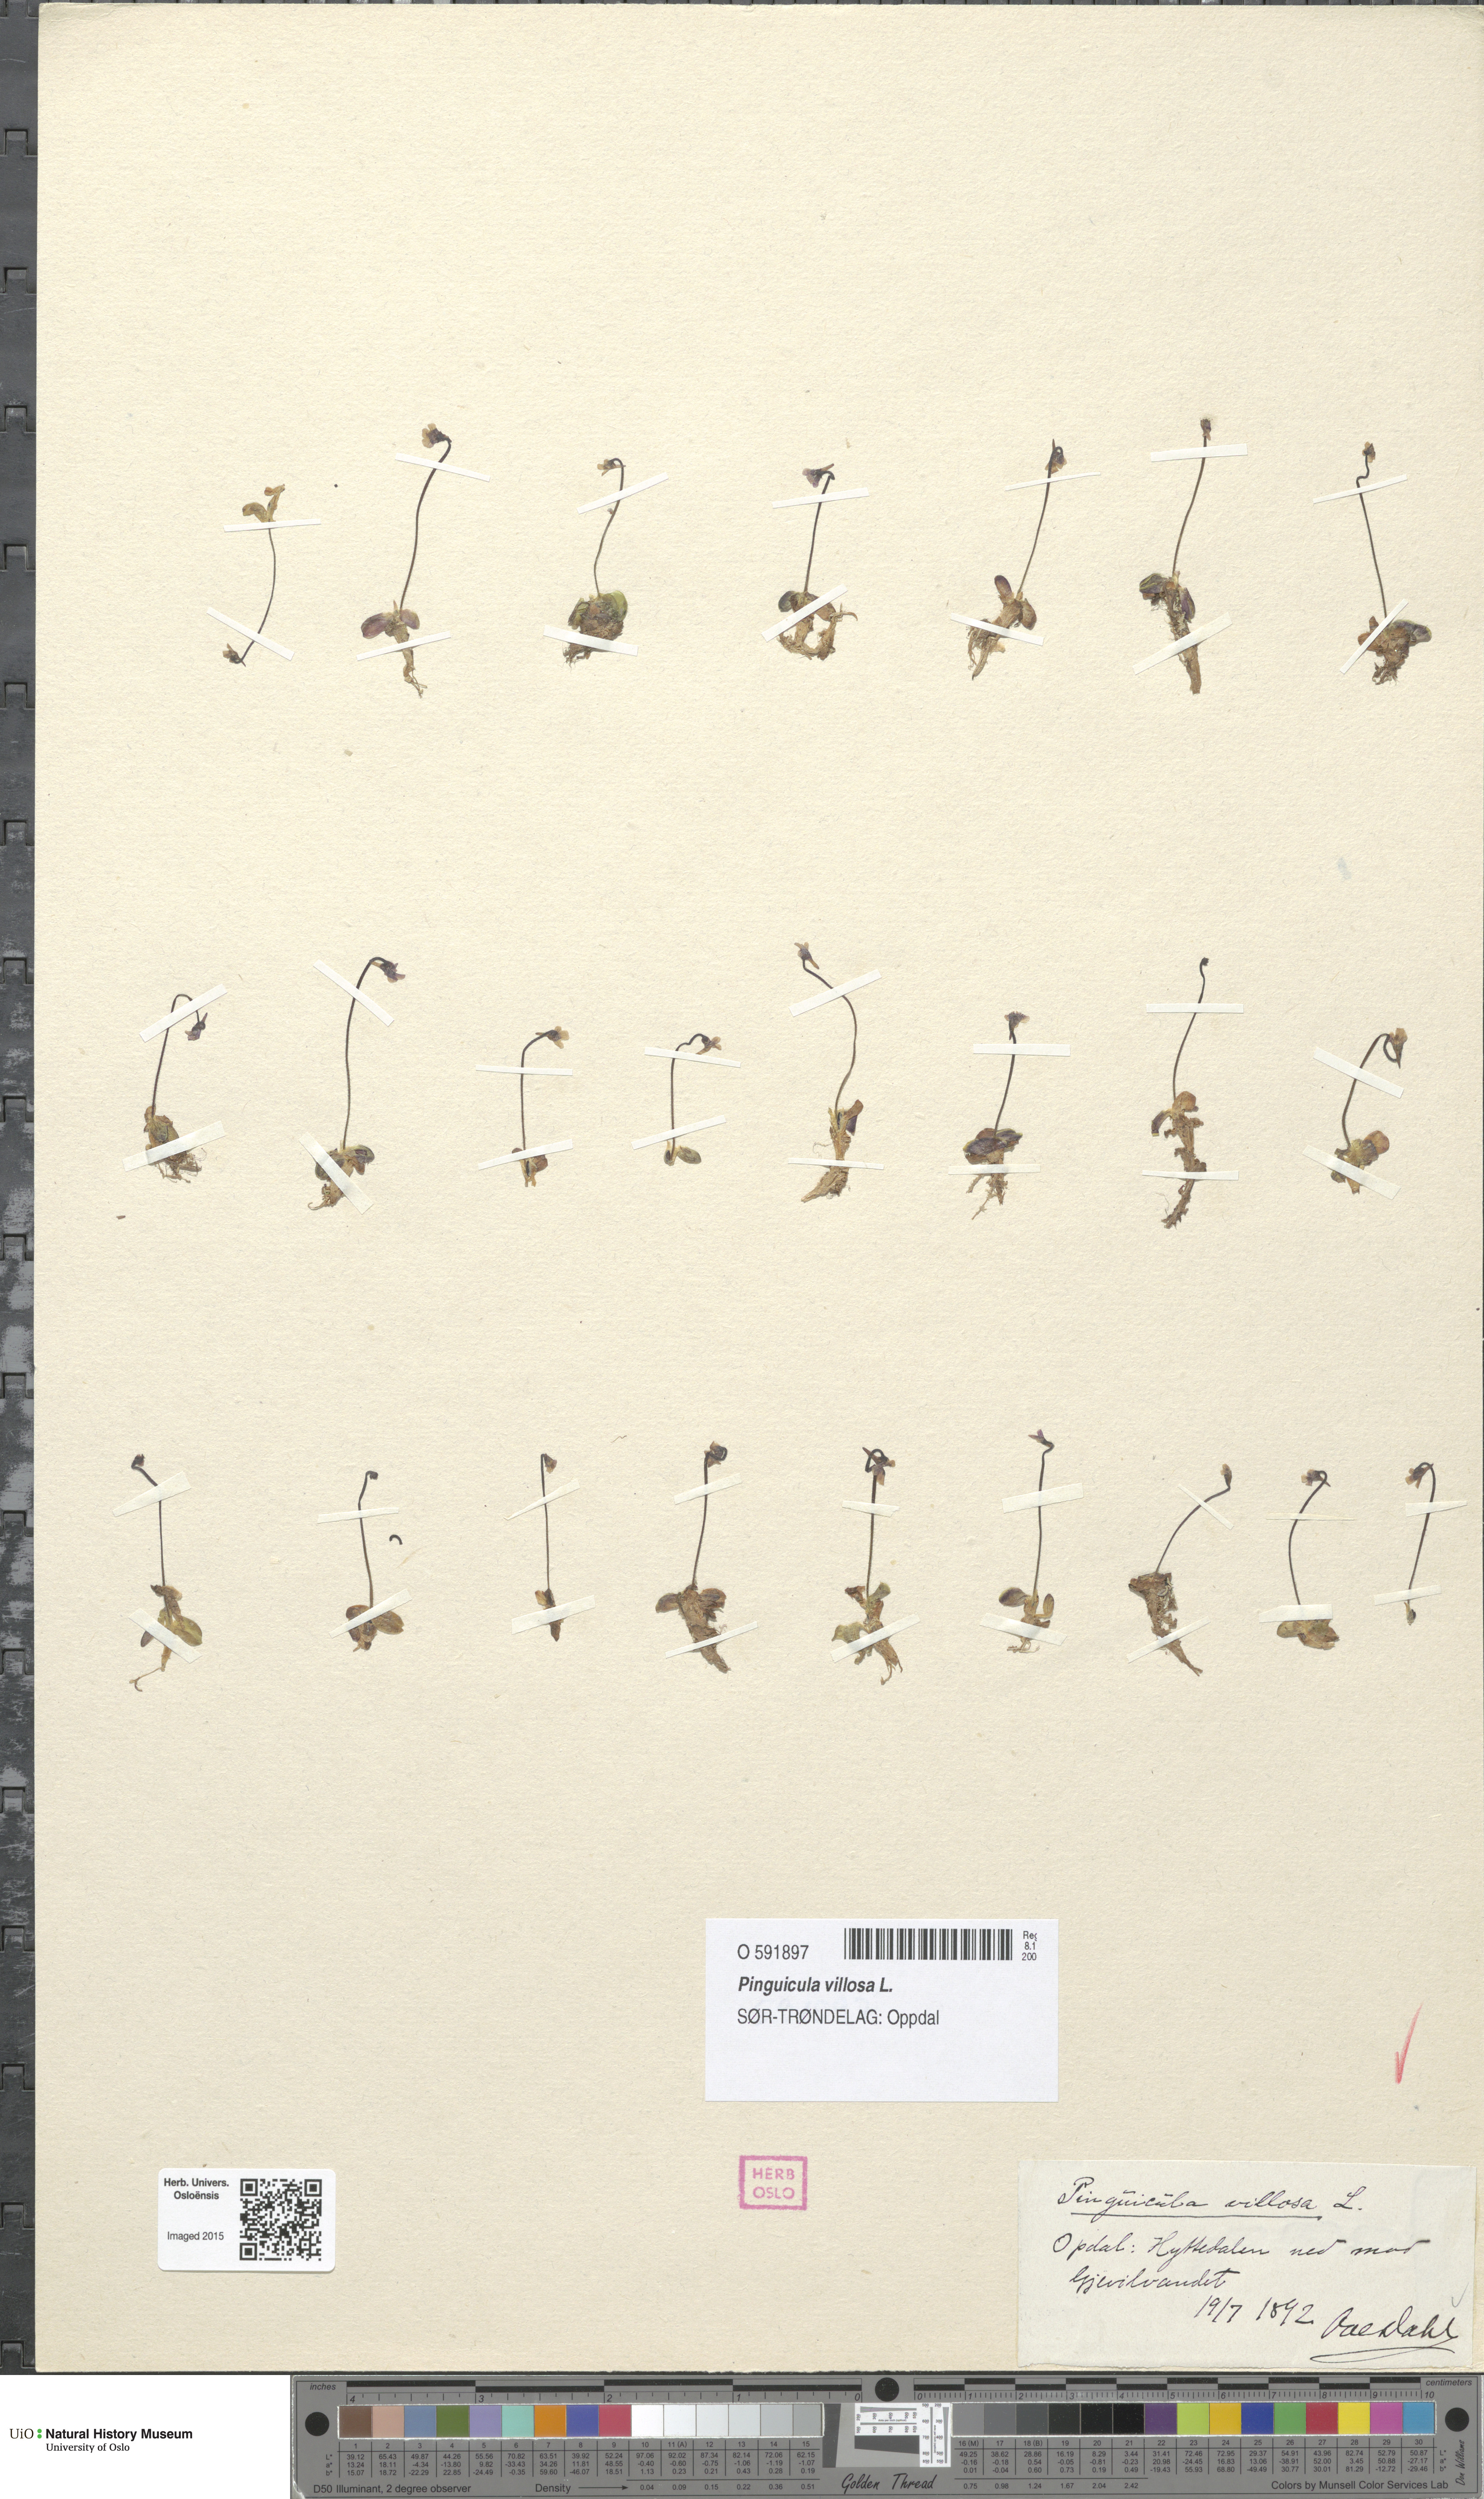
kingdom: Plantae
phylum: Tracheophyta
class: Magnoliopsida
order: Lamiales
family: Lentibulariaceae
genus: Pinguicula
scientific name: Pinguicula villosa
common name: Hairy butterwort
